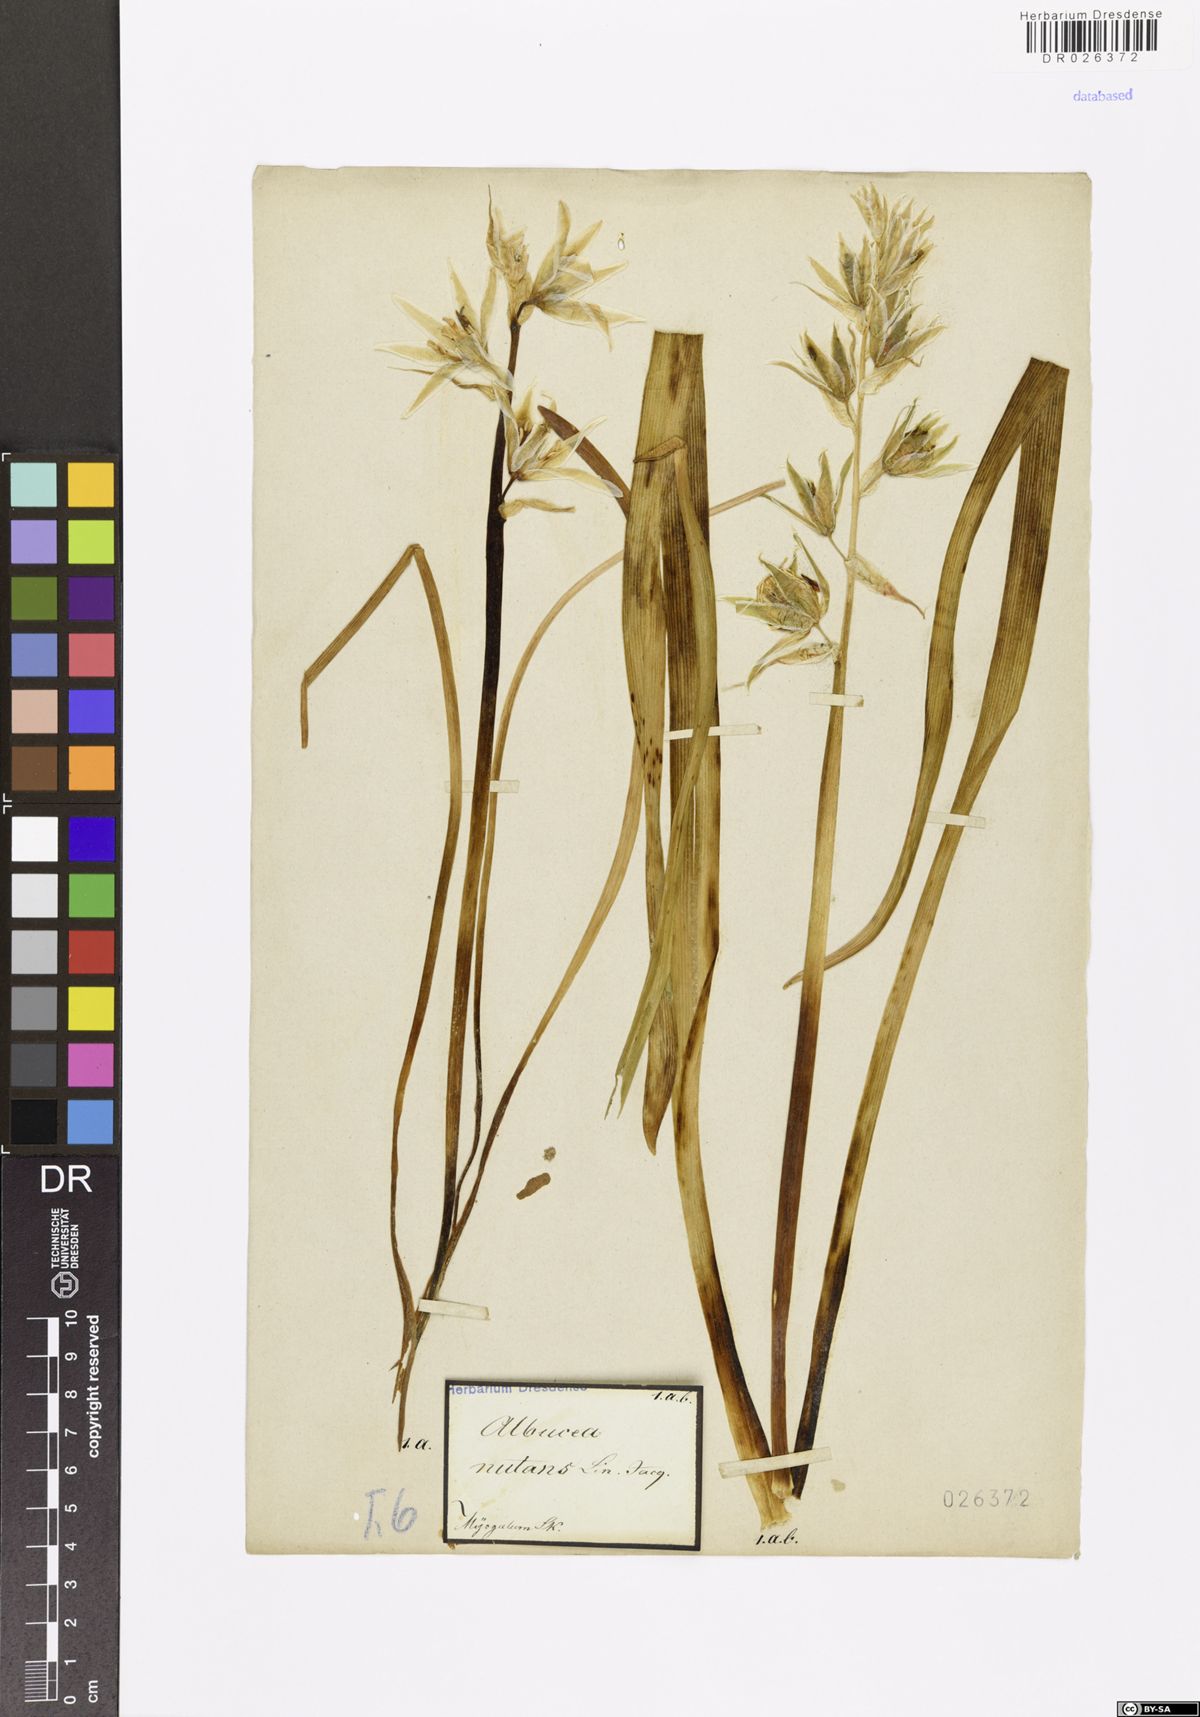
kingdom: Plantae
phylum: Tracheophyta
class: Liliopsida
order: Asparagales
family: Asparagaceae
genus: Ornithogalum
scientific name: Ornithogalum nutans
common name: Drooping star-of-bethlehem
